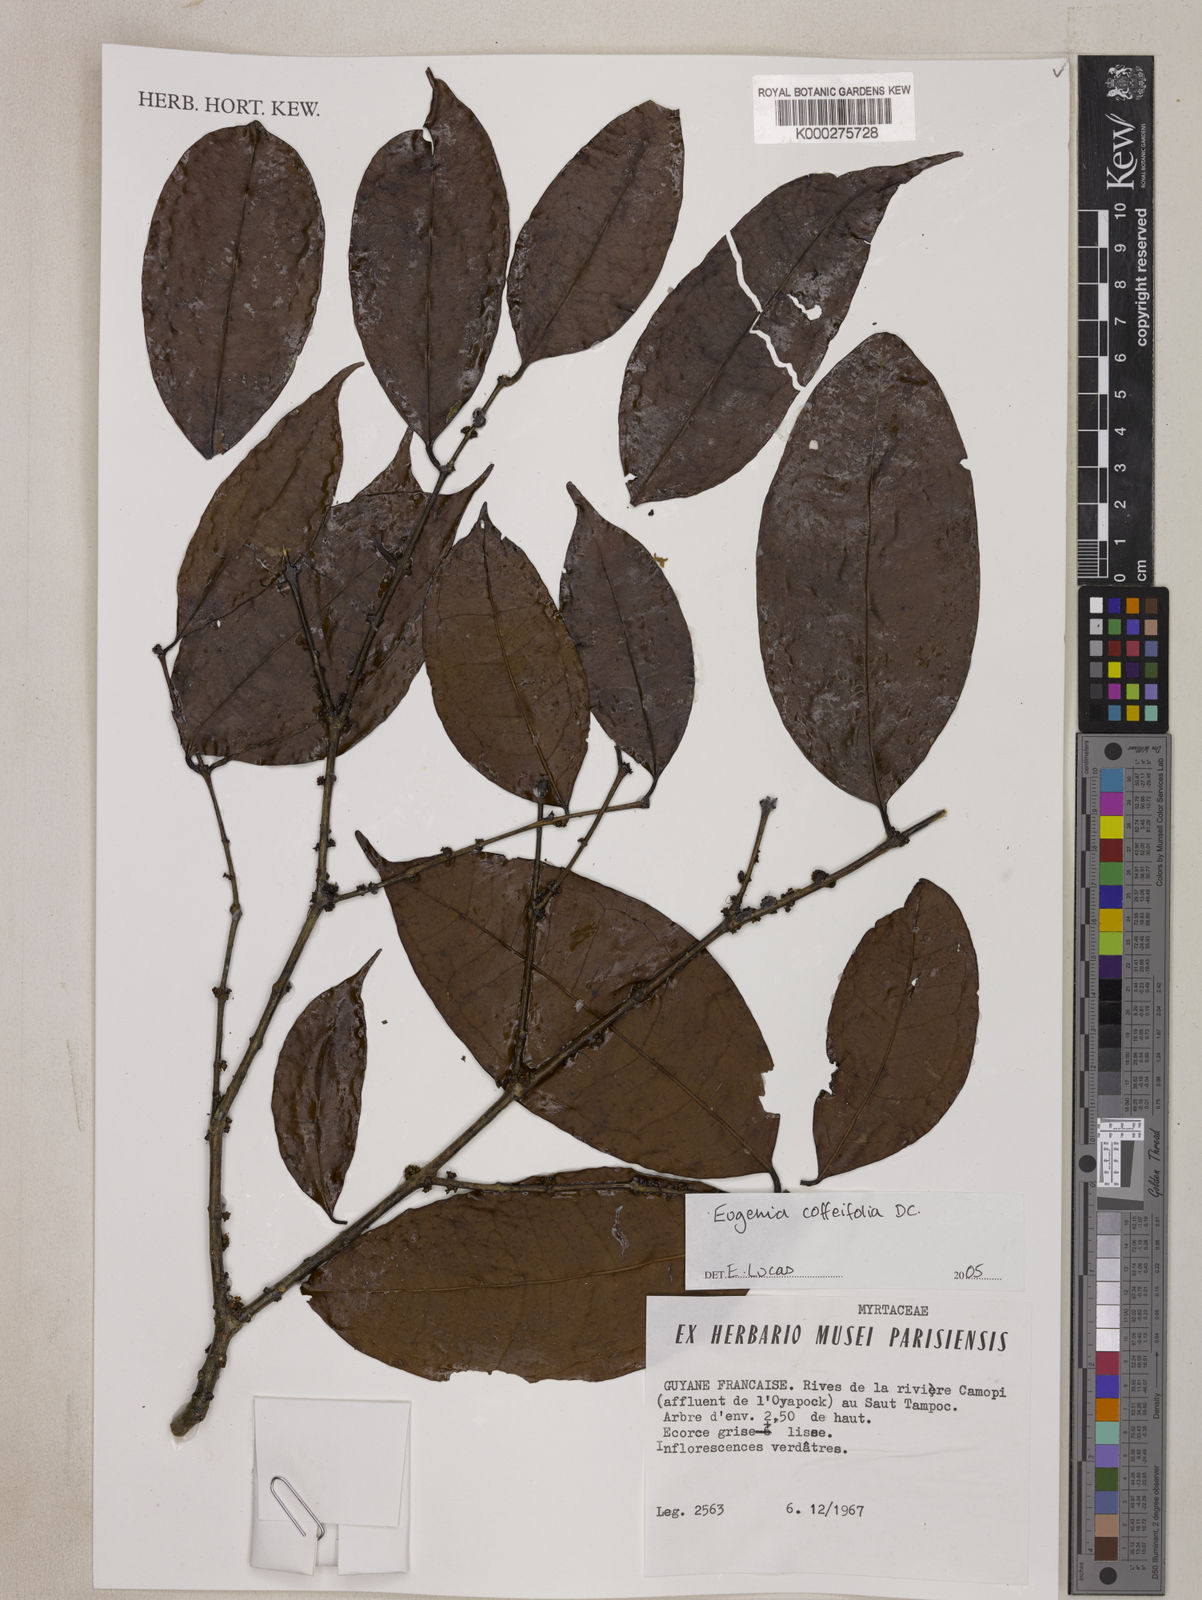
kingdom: Plantae
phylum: Tracheophyta
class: Magnoliopsida
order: Myrtales
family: Myrtaceae
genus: Eugenia
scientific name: Eugenia coffeifolia
